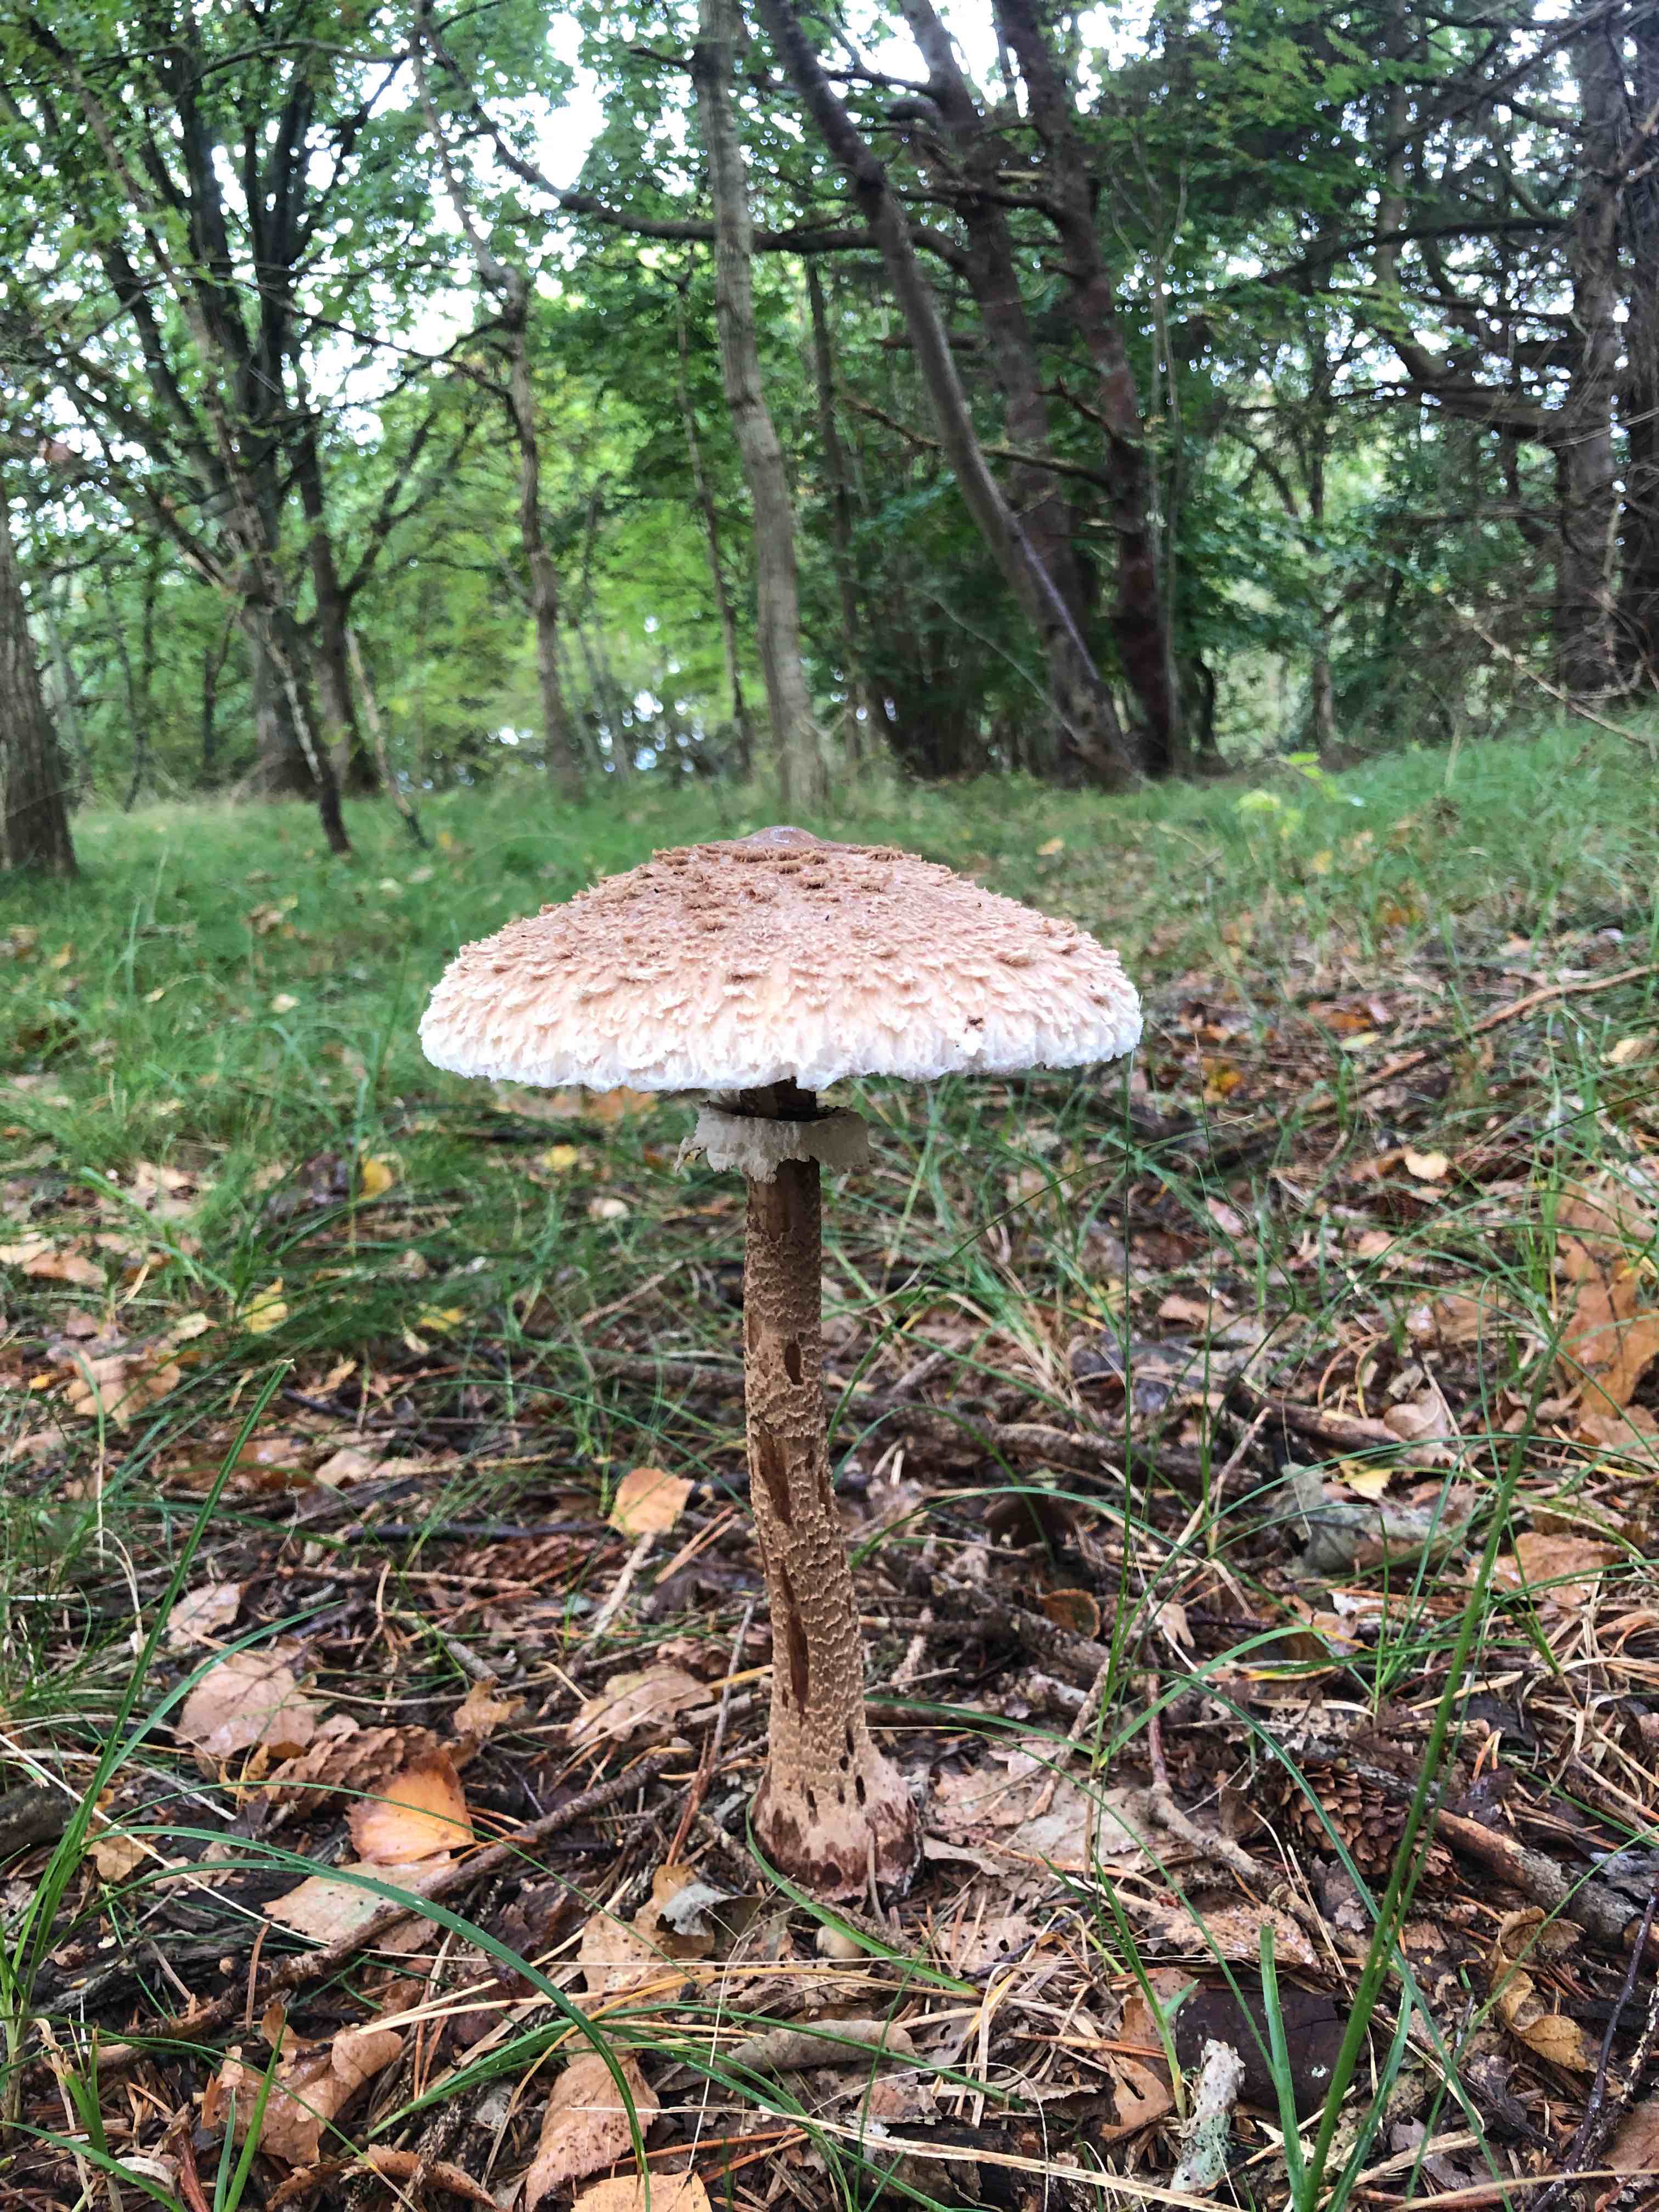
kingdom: Fungi
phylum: Basidiomycota
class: Agaricomycetes
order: Agaricales
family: Agaricaceae
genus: Macrolepiota
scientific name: Macrolepiota procera
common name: stor kæmpeparasolhat
